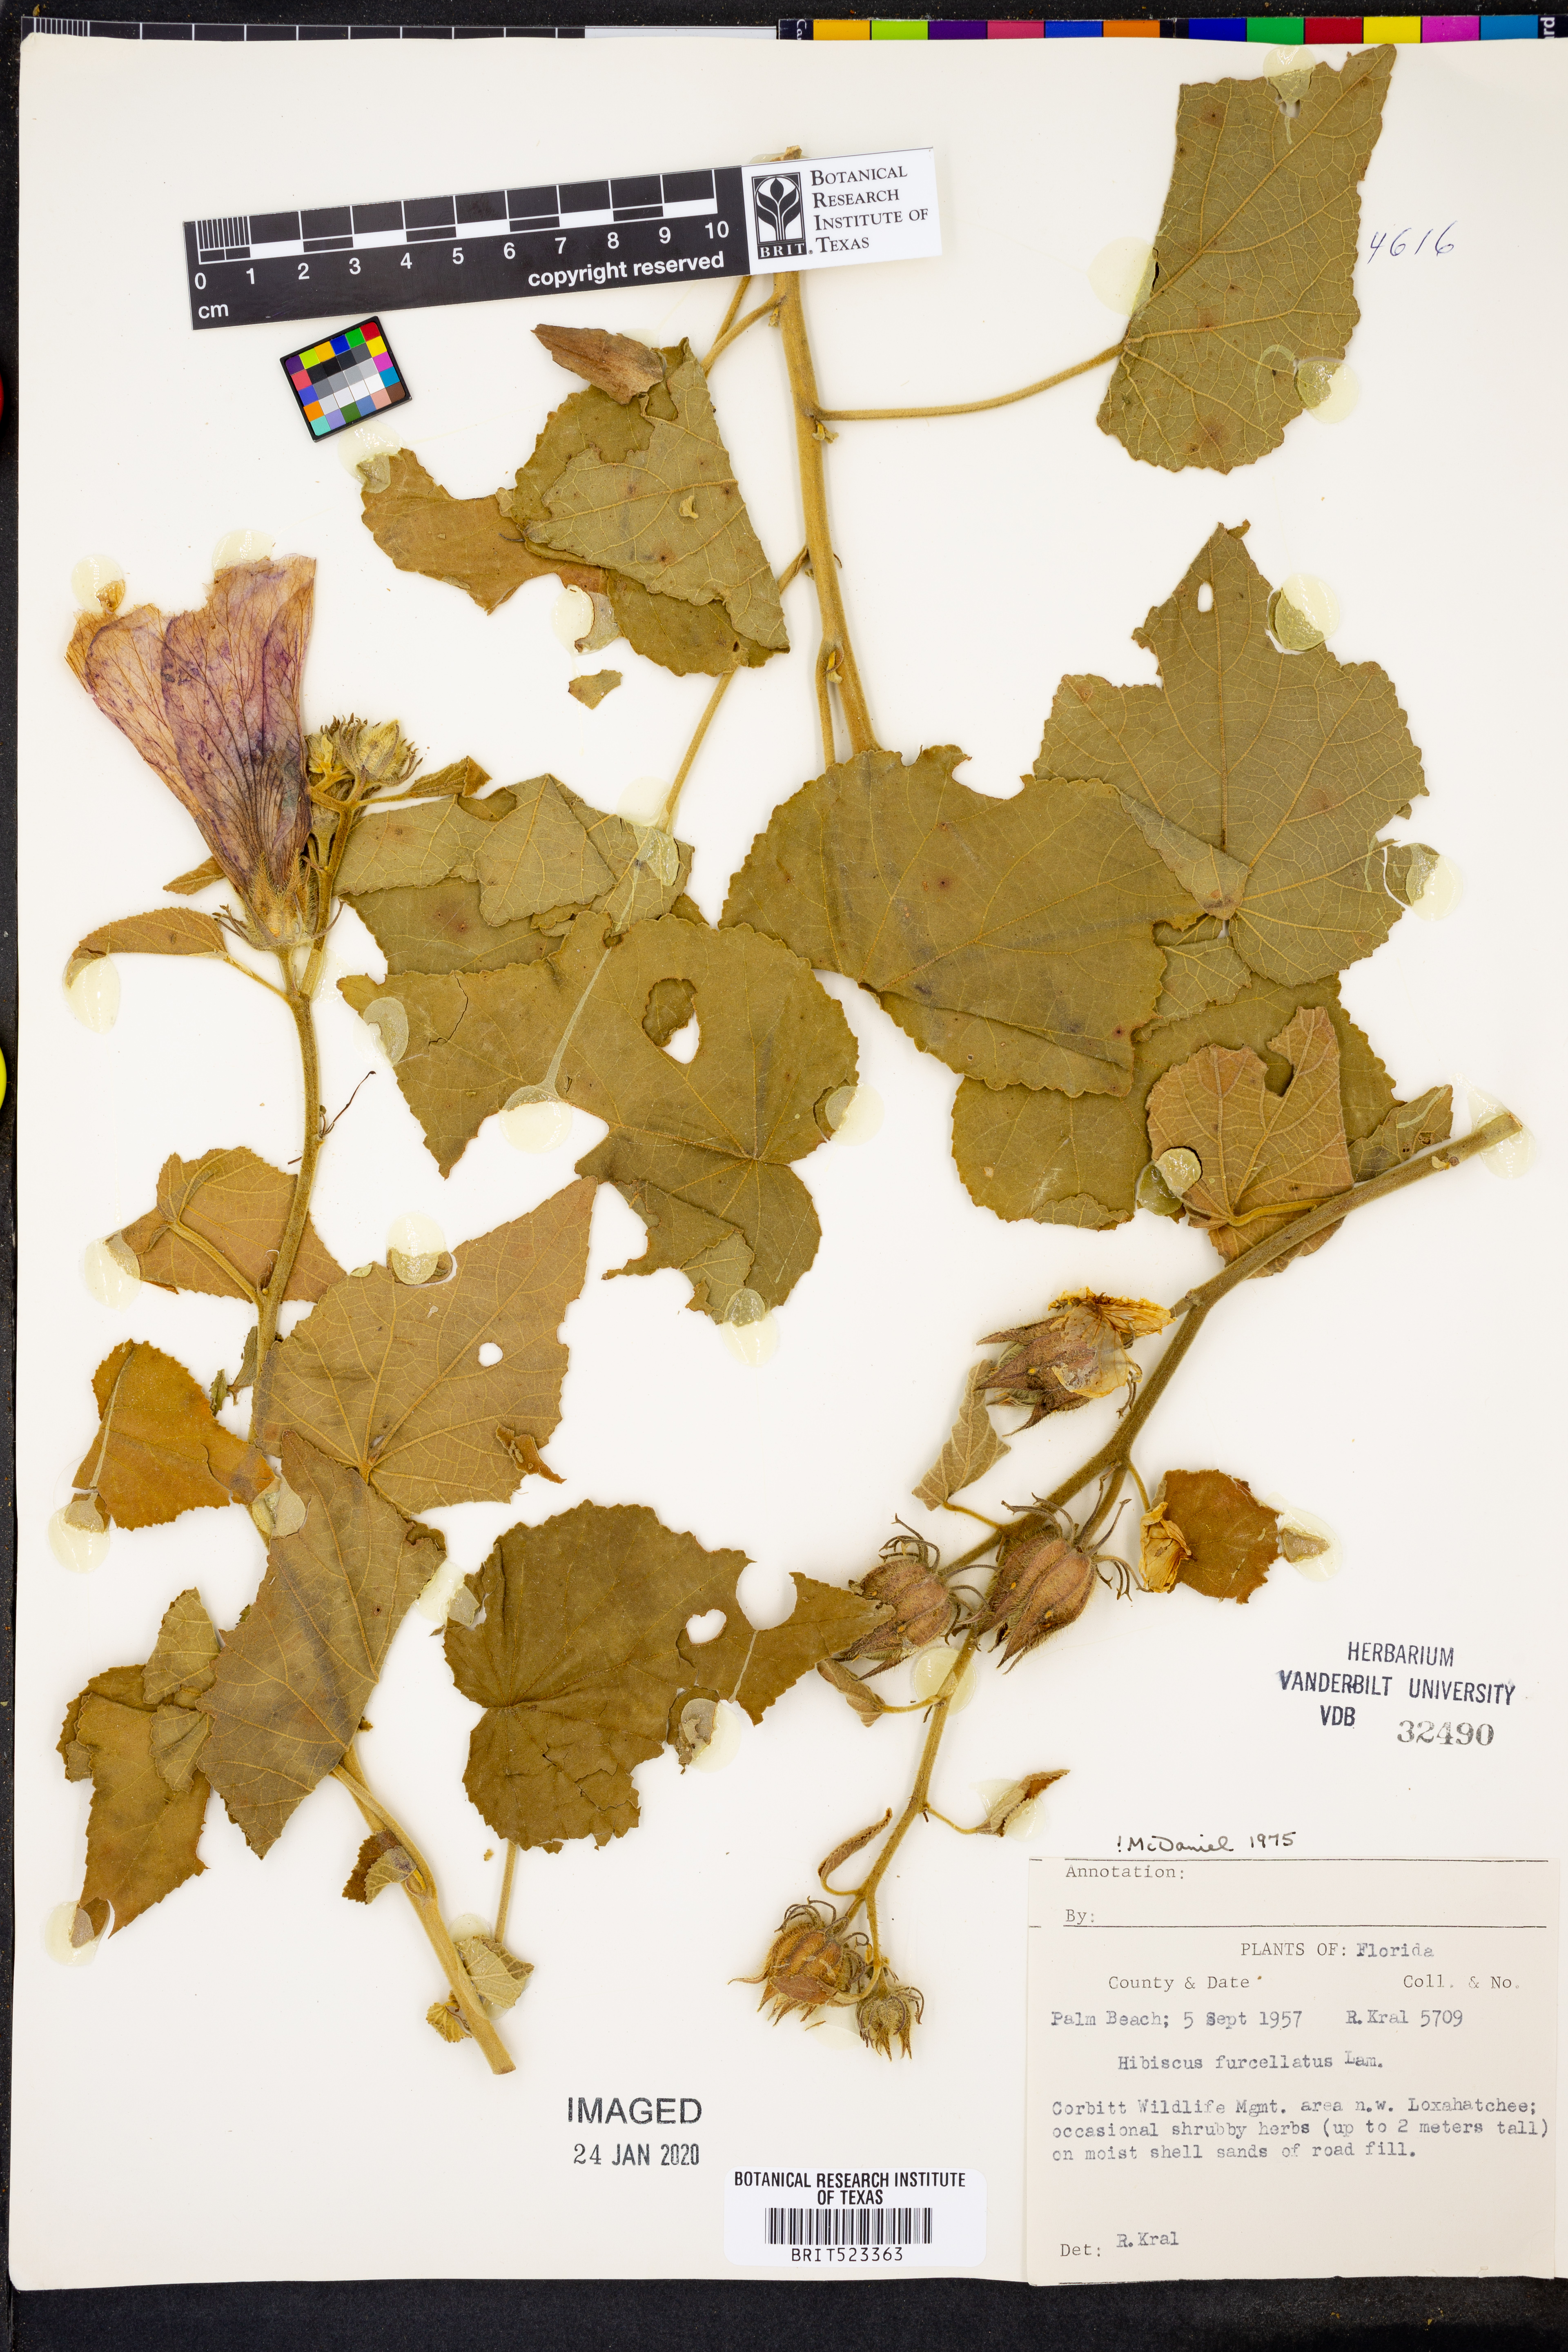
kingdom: Plantae
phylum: Tracheophyta
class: Magnoliopsida
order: Malvales
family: Malvaceae
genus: Hibiscus
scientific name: Hibiscus furcellatus
